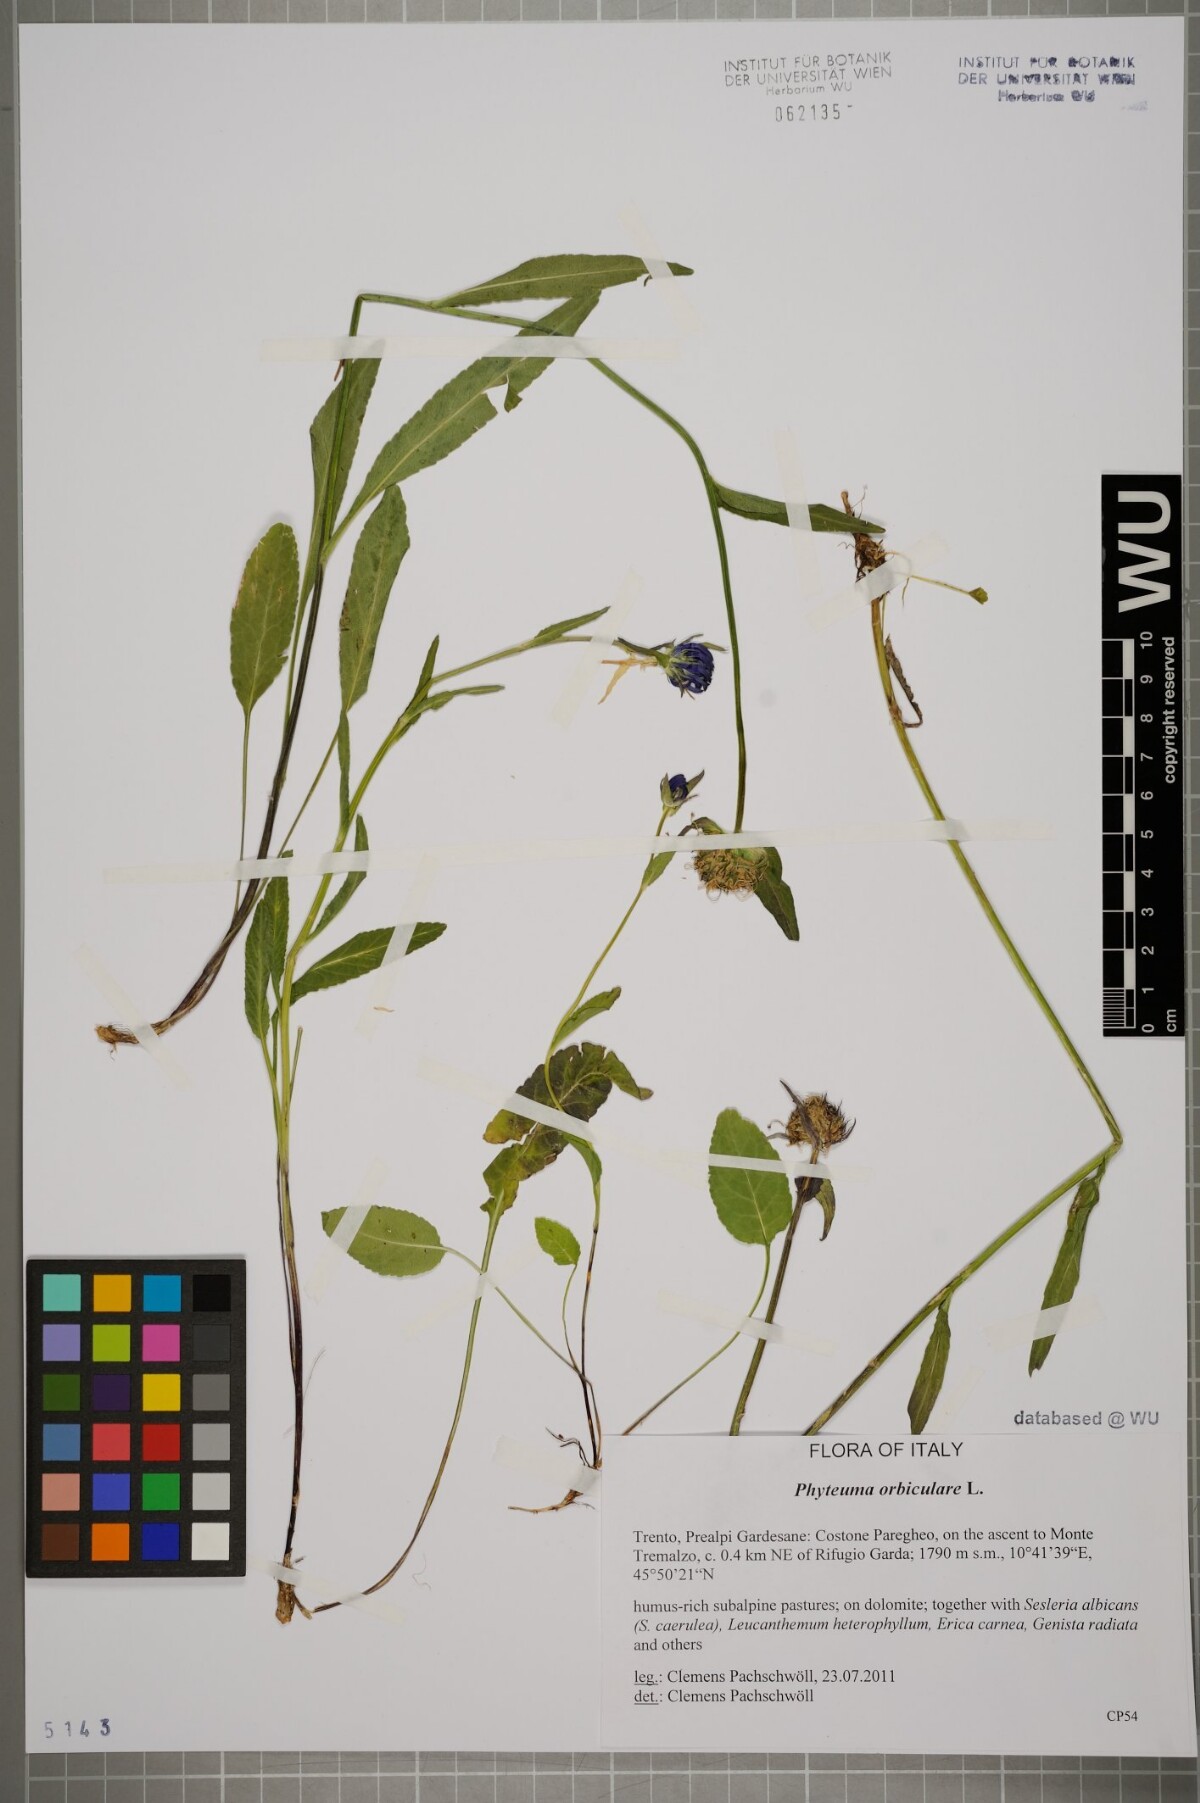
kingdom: Plantae
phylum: Tracheophyta
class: Magnoliopsida
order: Asterales
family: Campanulaceae
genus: Phyteuma
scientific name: Phyteuma orbiculare
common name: Round-headed rampion
